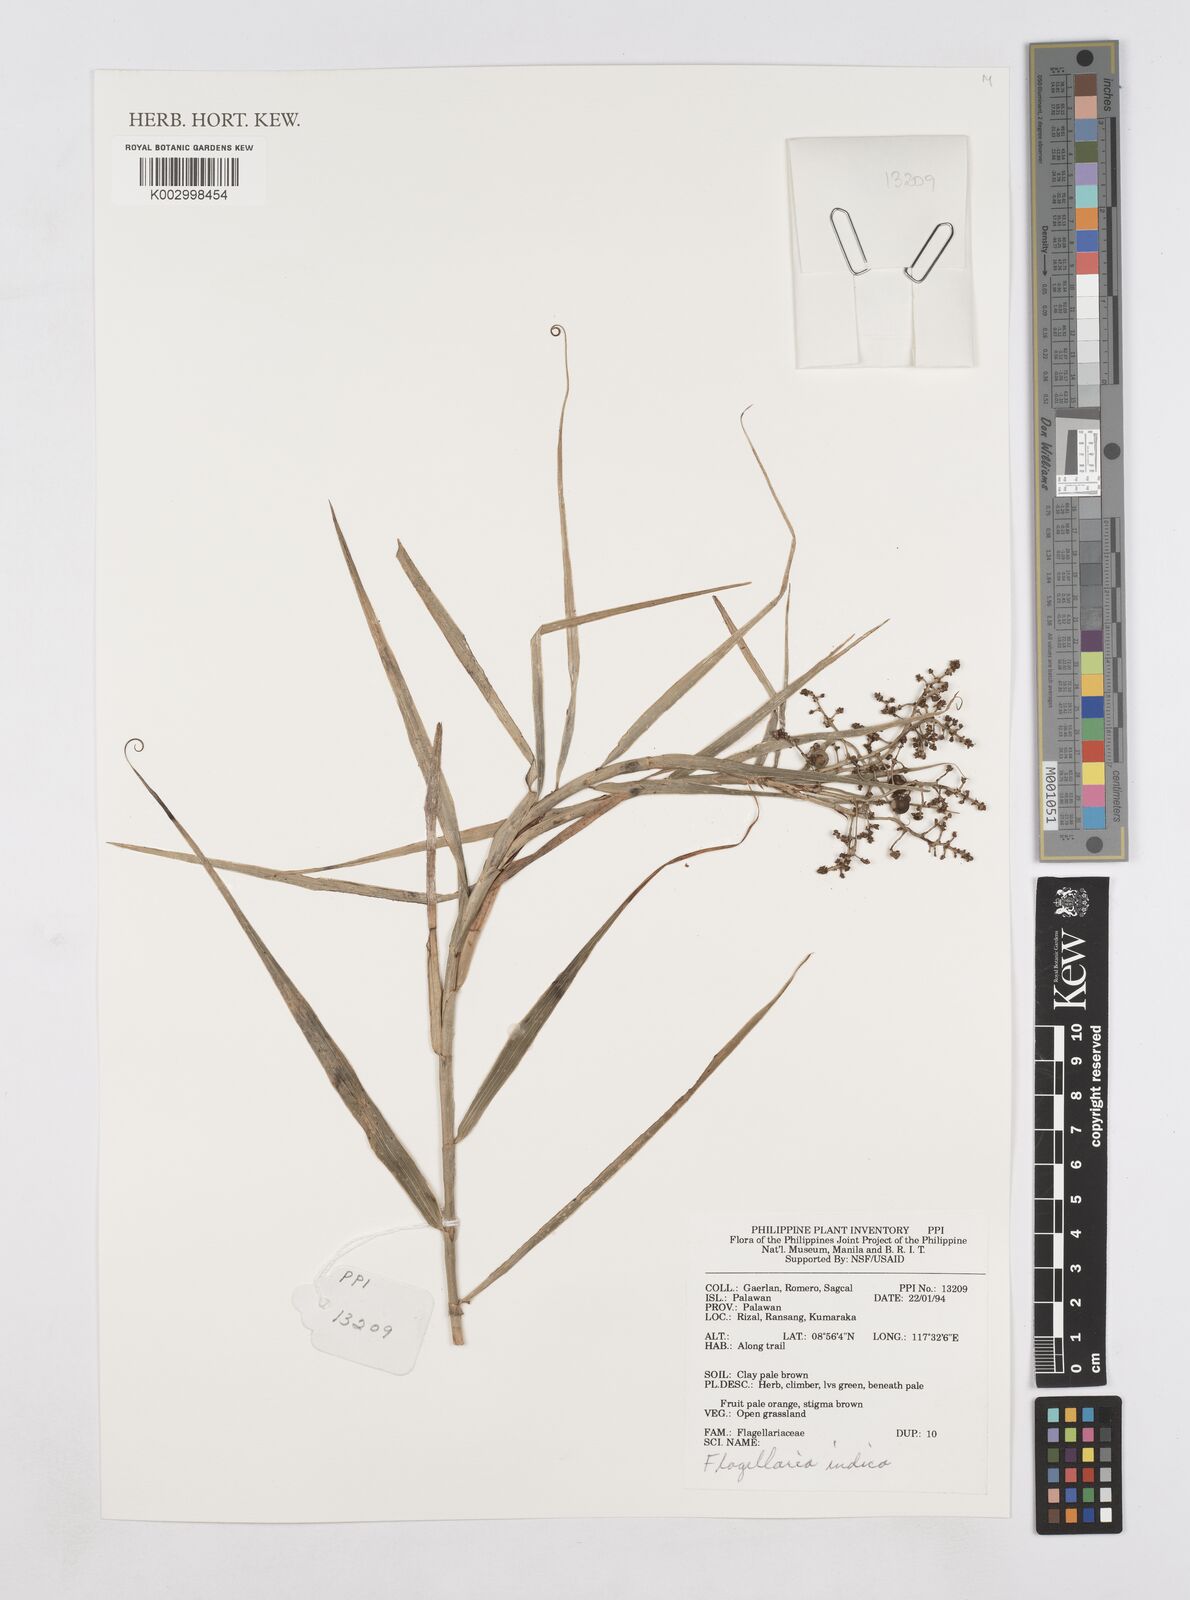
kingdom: Plantae
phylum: Tracheophyta
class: Liliopsida
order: Poales
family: Flagellariaceae
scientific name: Flagellariaceae
